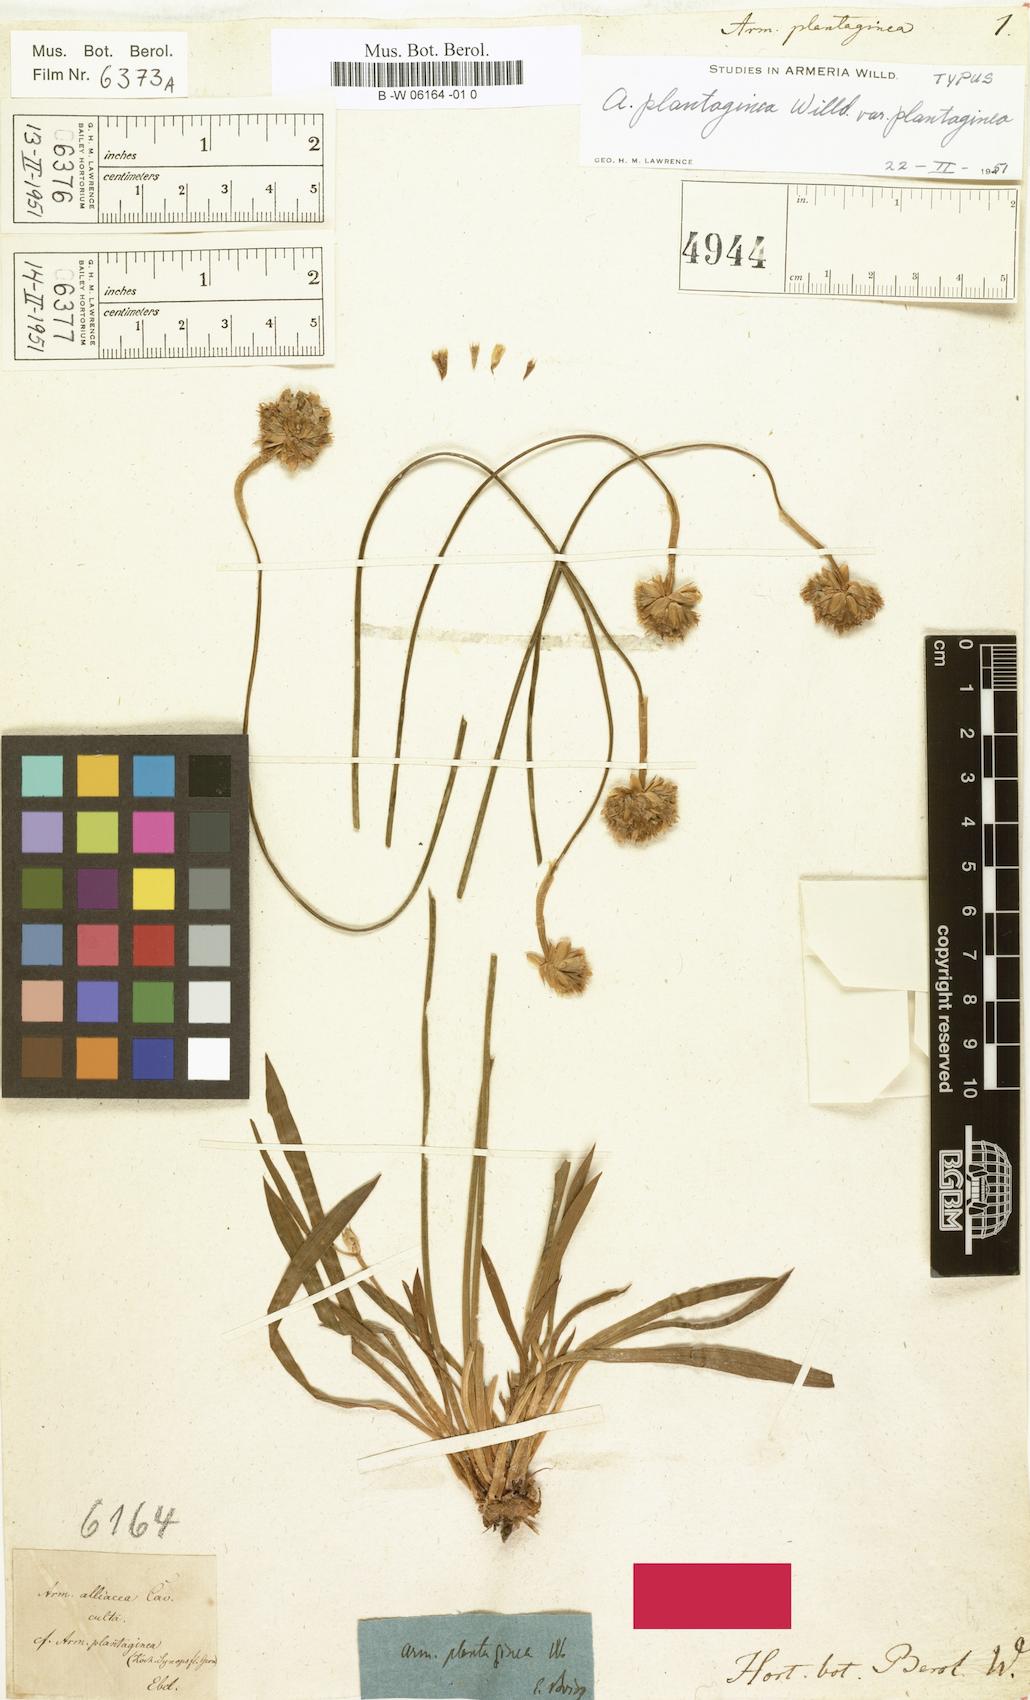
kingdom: Plantae
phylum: Tracheophyta
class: Magnoliopsida
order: Caryophyllales
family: Plumbaginaceae
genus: Armeria
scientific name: Armeria arenaria
